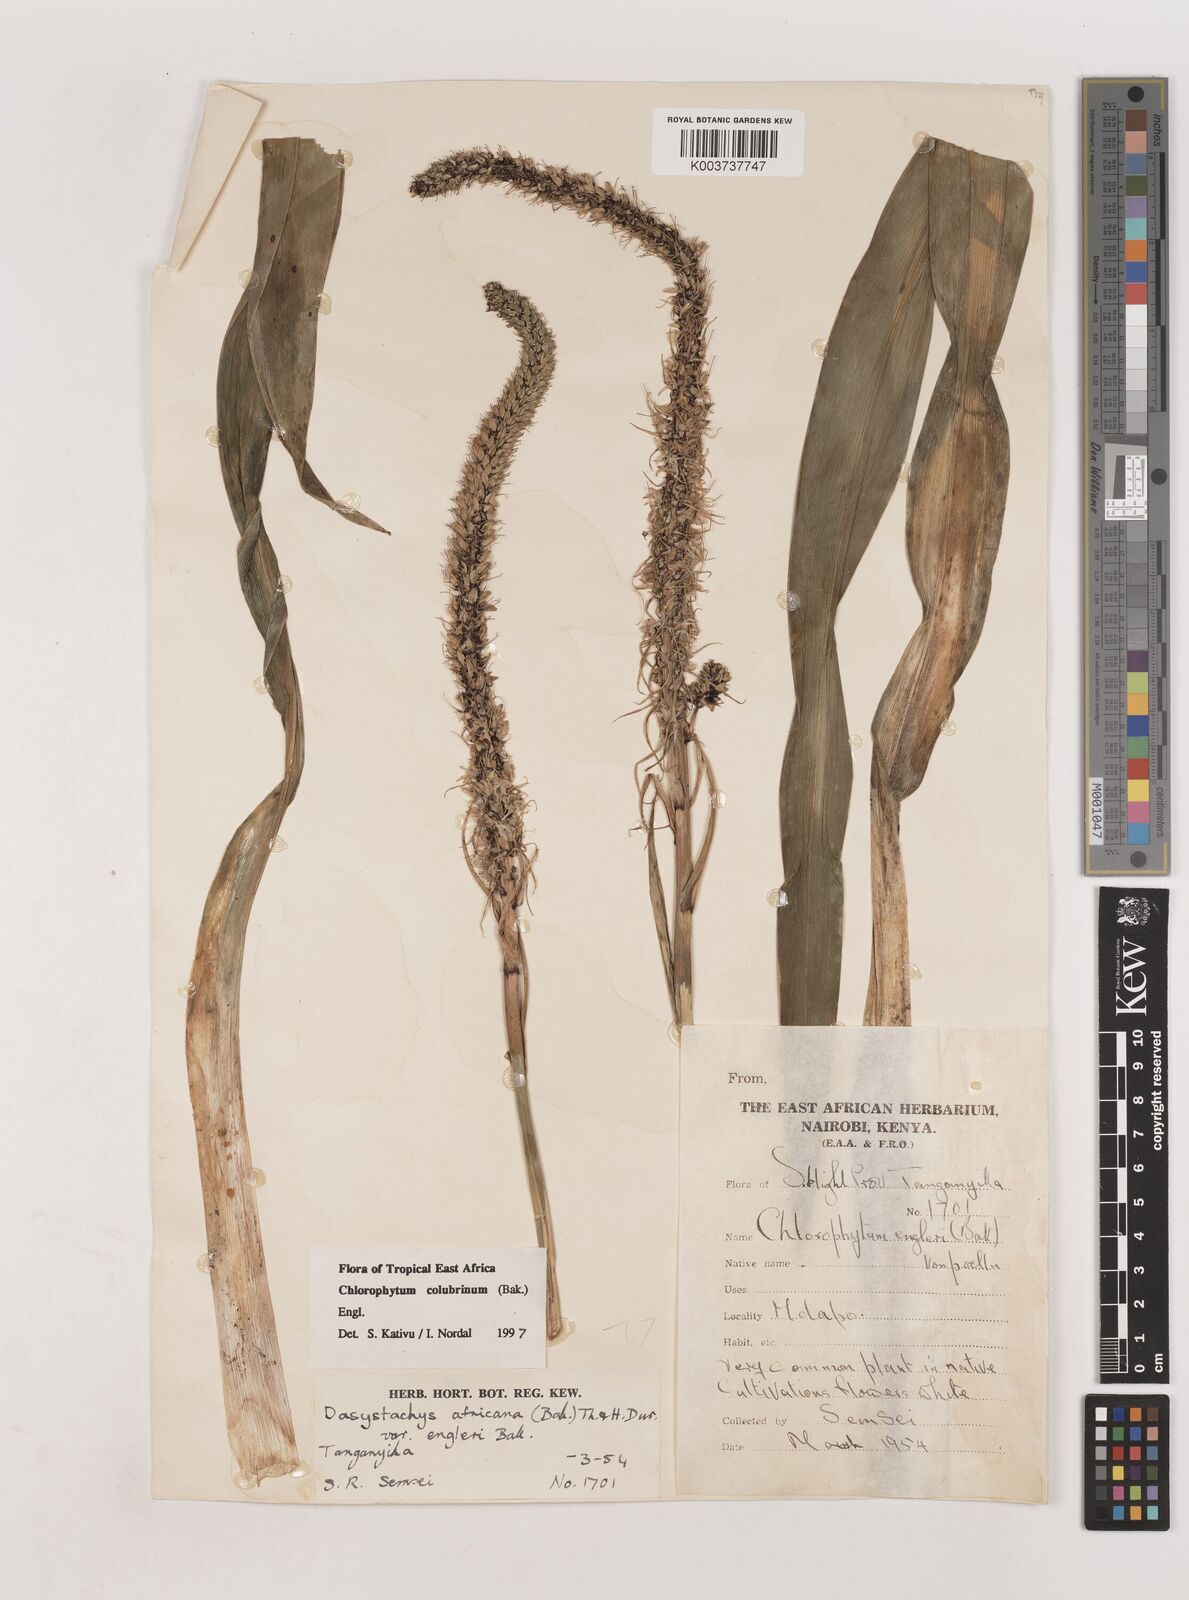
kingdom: Plantae
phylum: Tracheophyta
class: Liliopsida
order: Asparagales
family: Asparagaceae
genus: Chlorophytum
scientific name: Chlorophytum colubrinum
